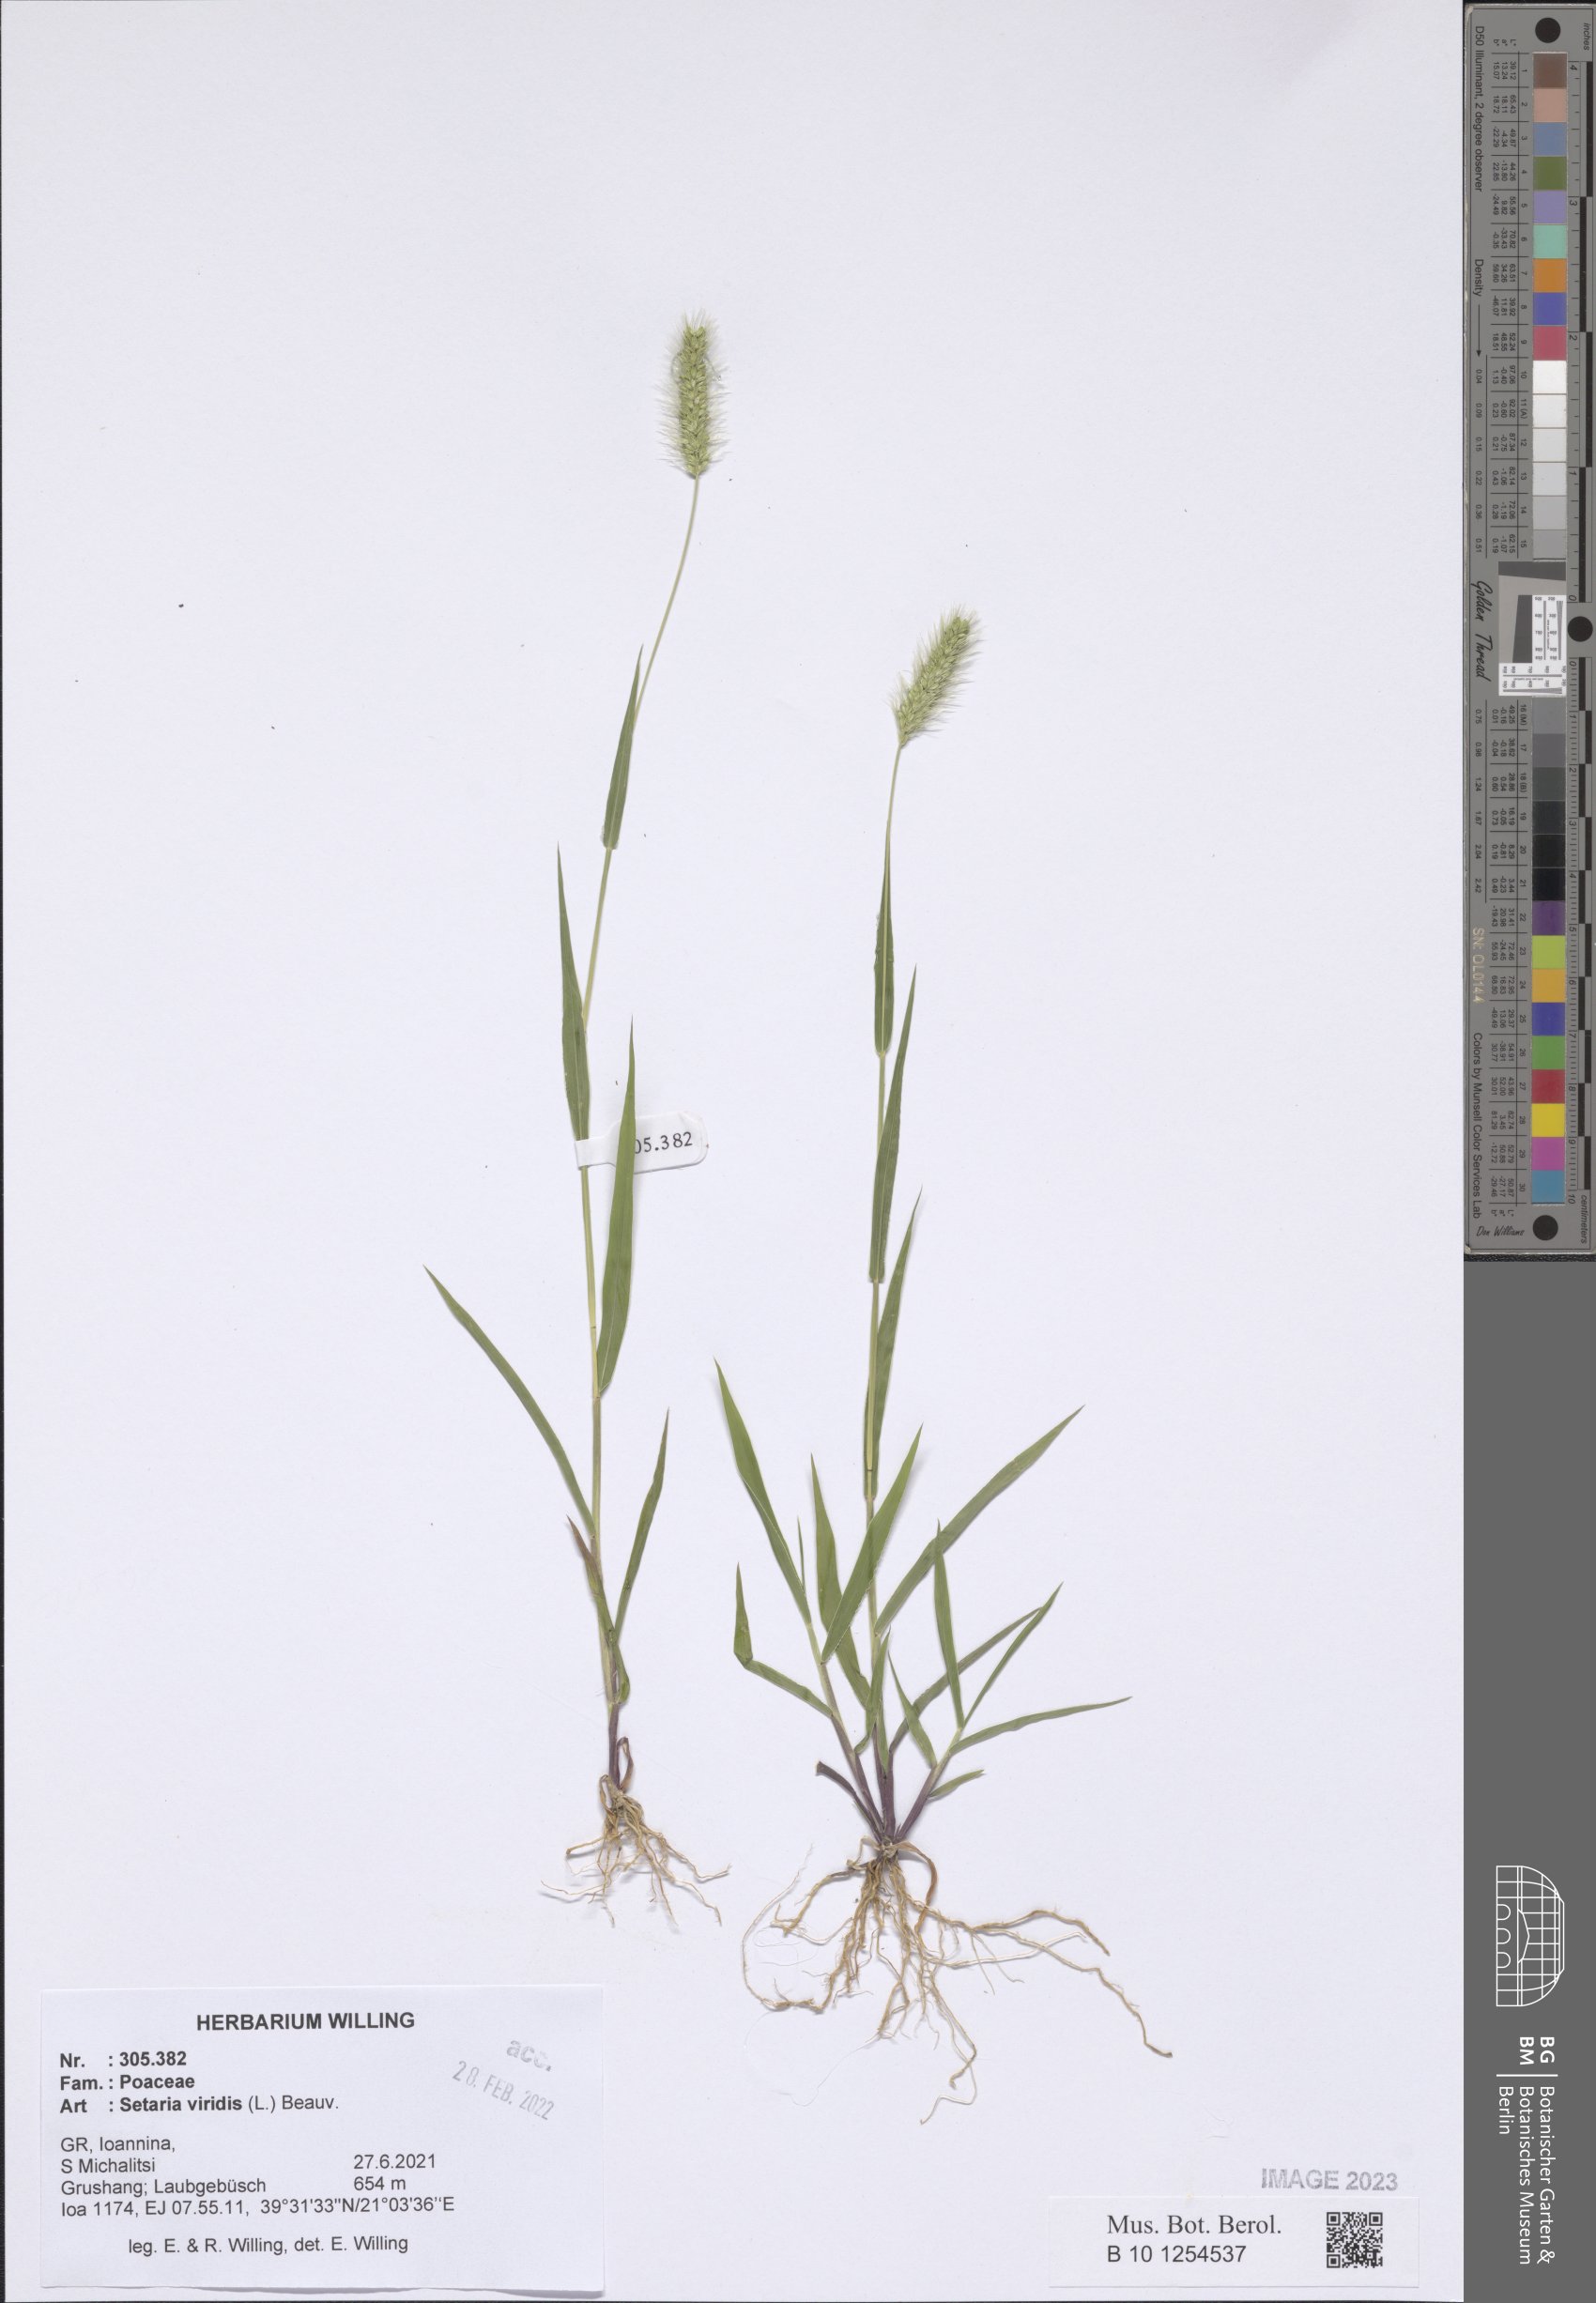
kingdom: Plantae
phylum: Tracheophyta
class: Liliopsida
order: Poales
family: Poaceae
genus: Setaria
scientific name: Setaria viridis
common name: Green bristlegrass
